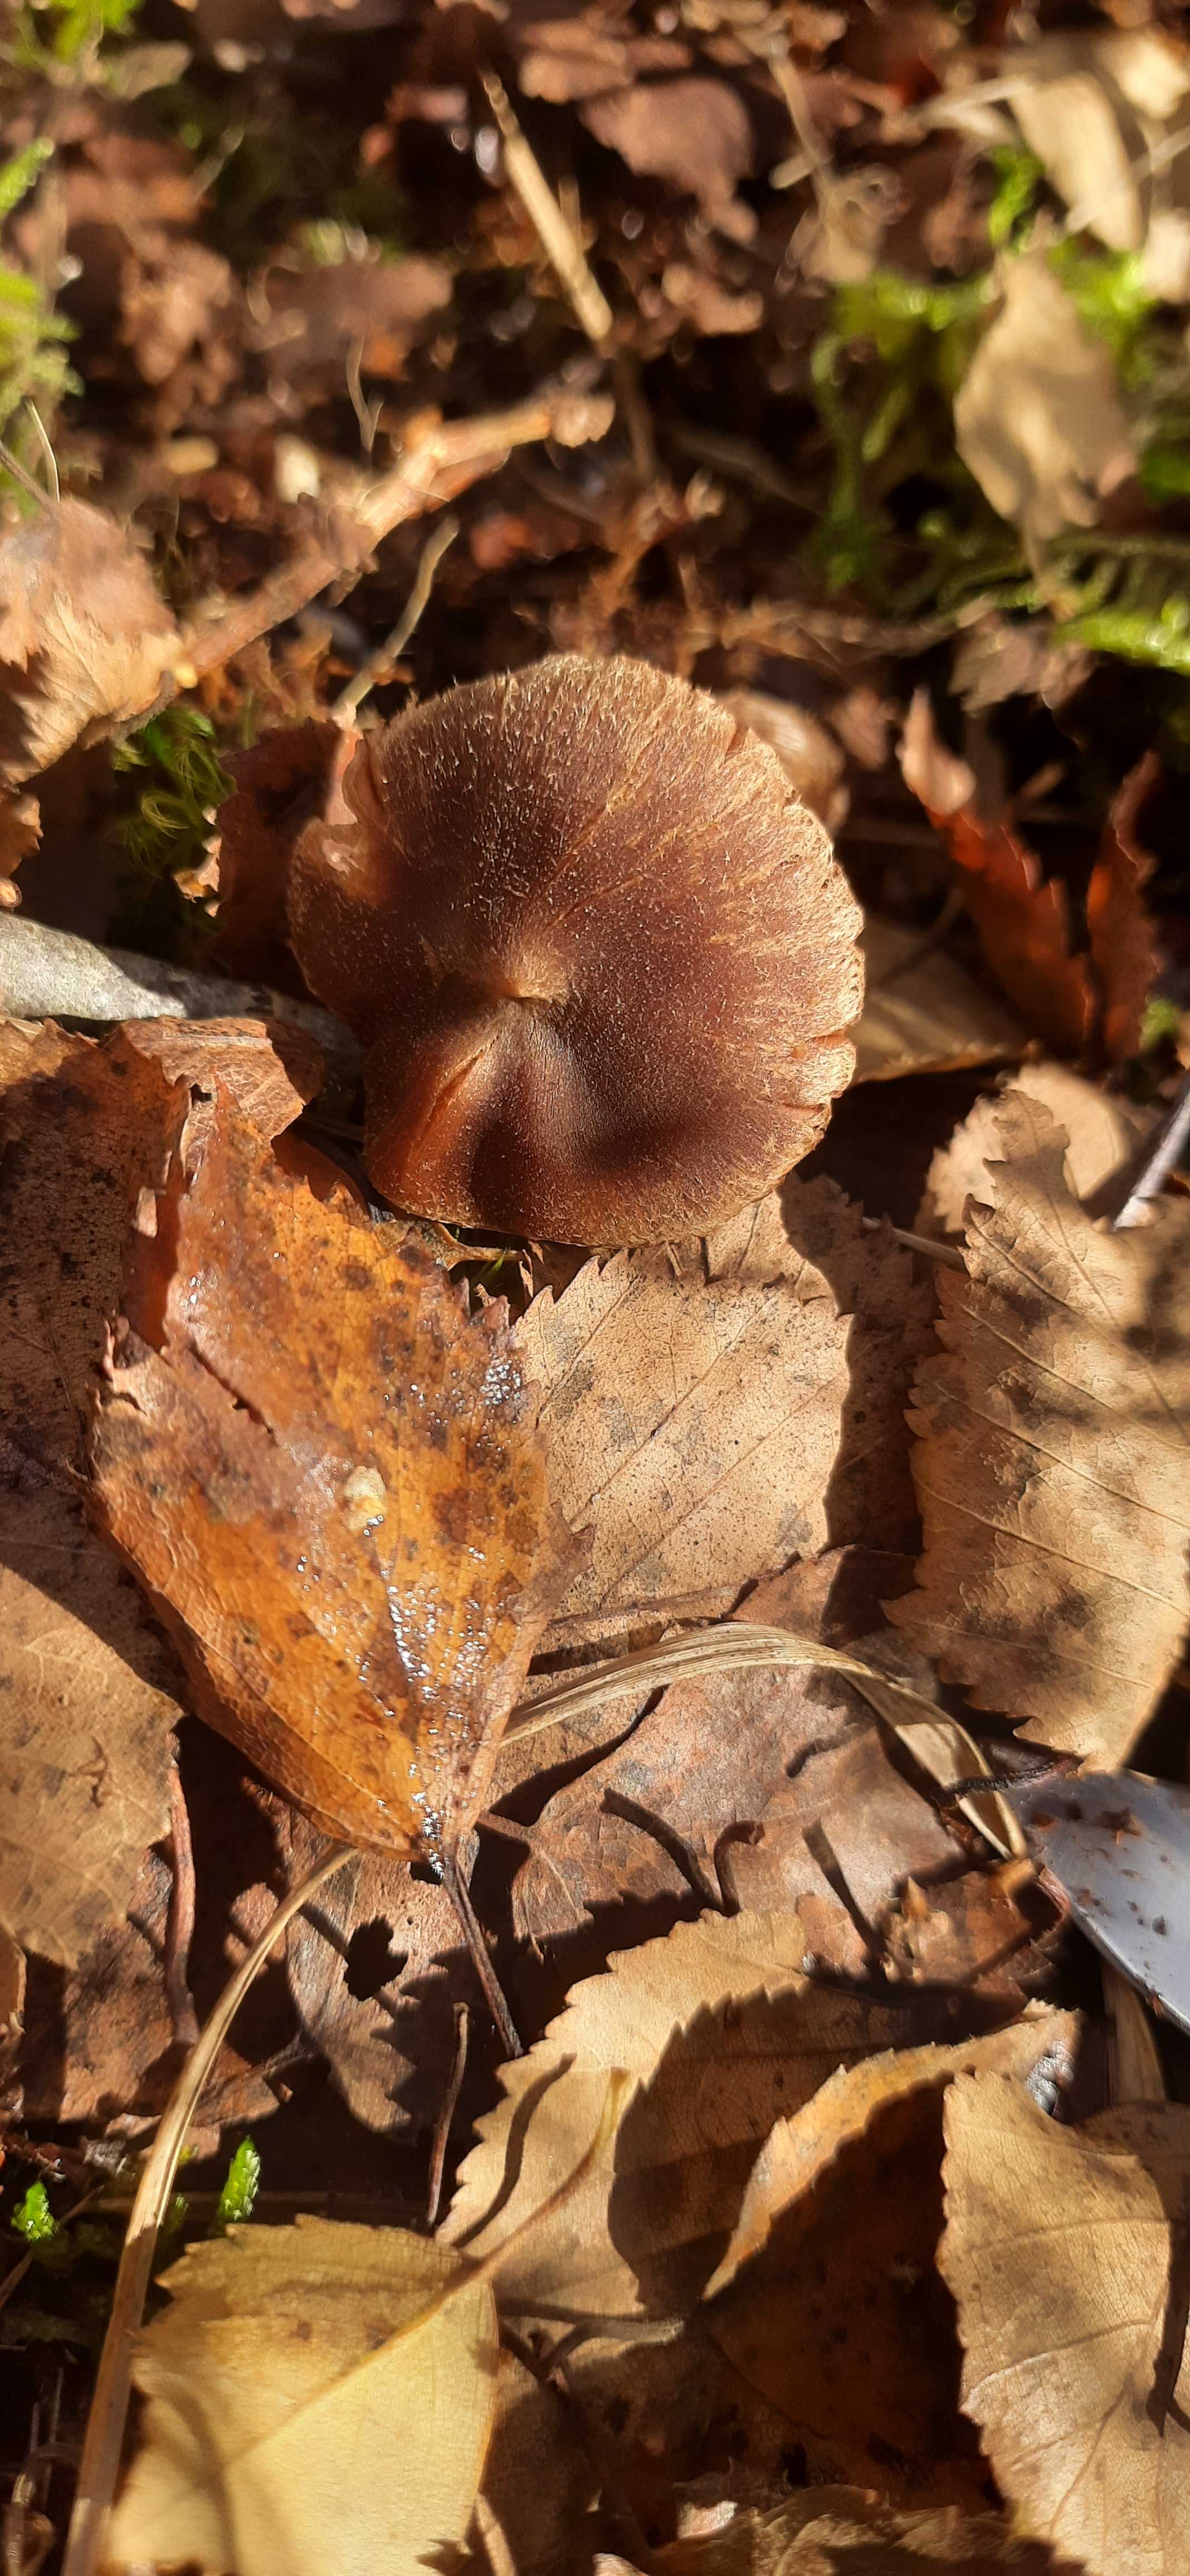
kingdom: Fungi
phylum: Basidiomycota
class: Agaricomycetes
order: Agaricales
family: Cortinariaceae
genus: Cortinarius
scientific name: Cortinarius
